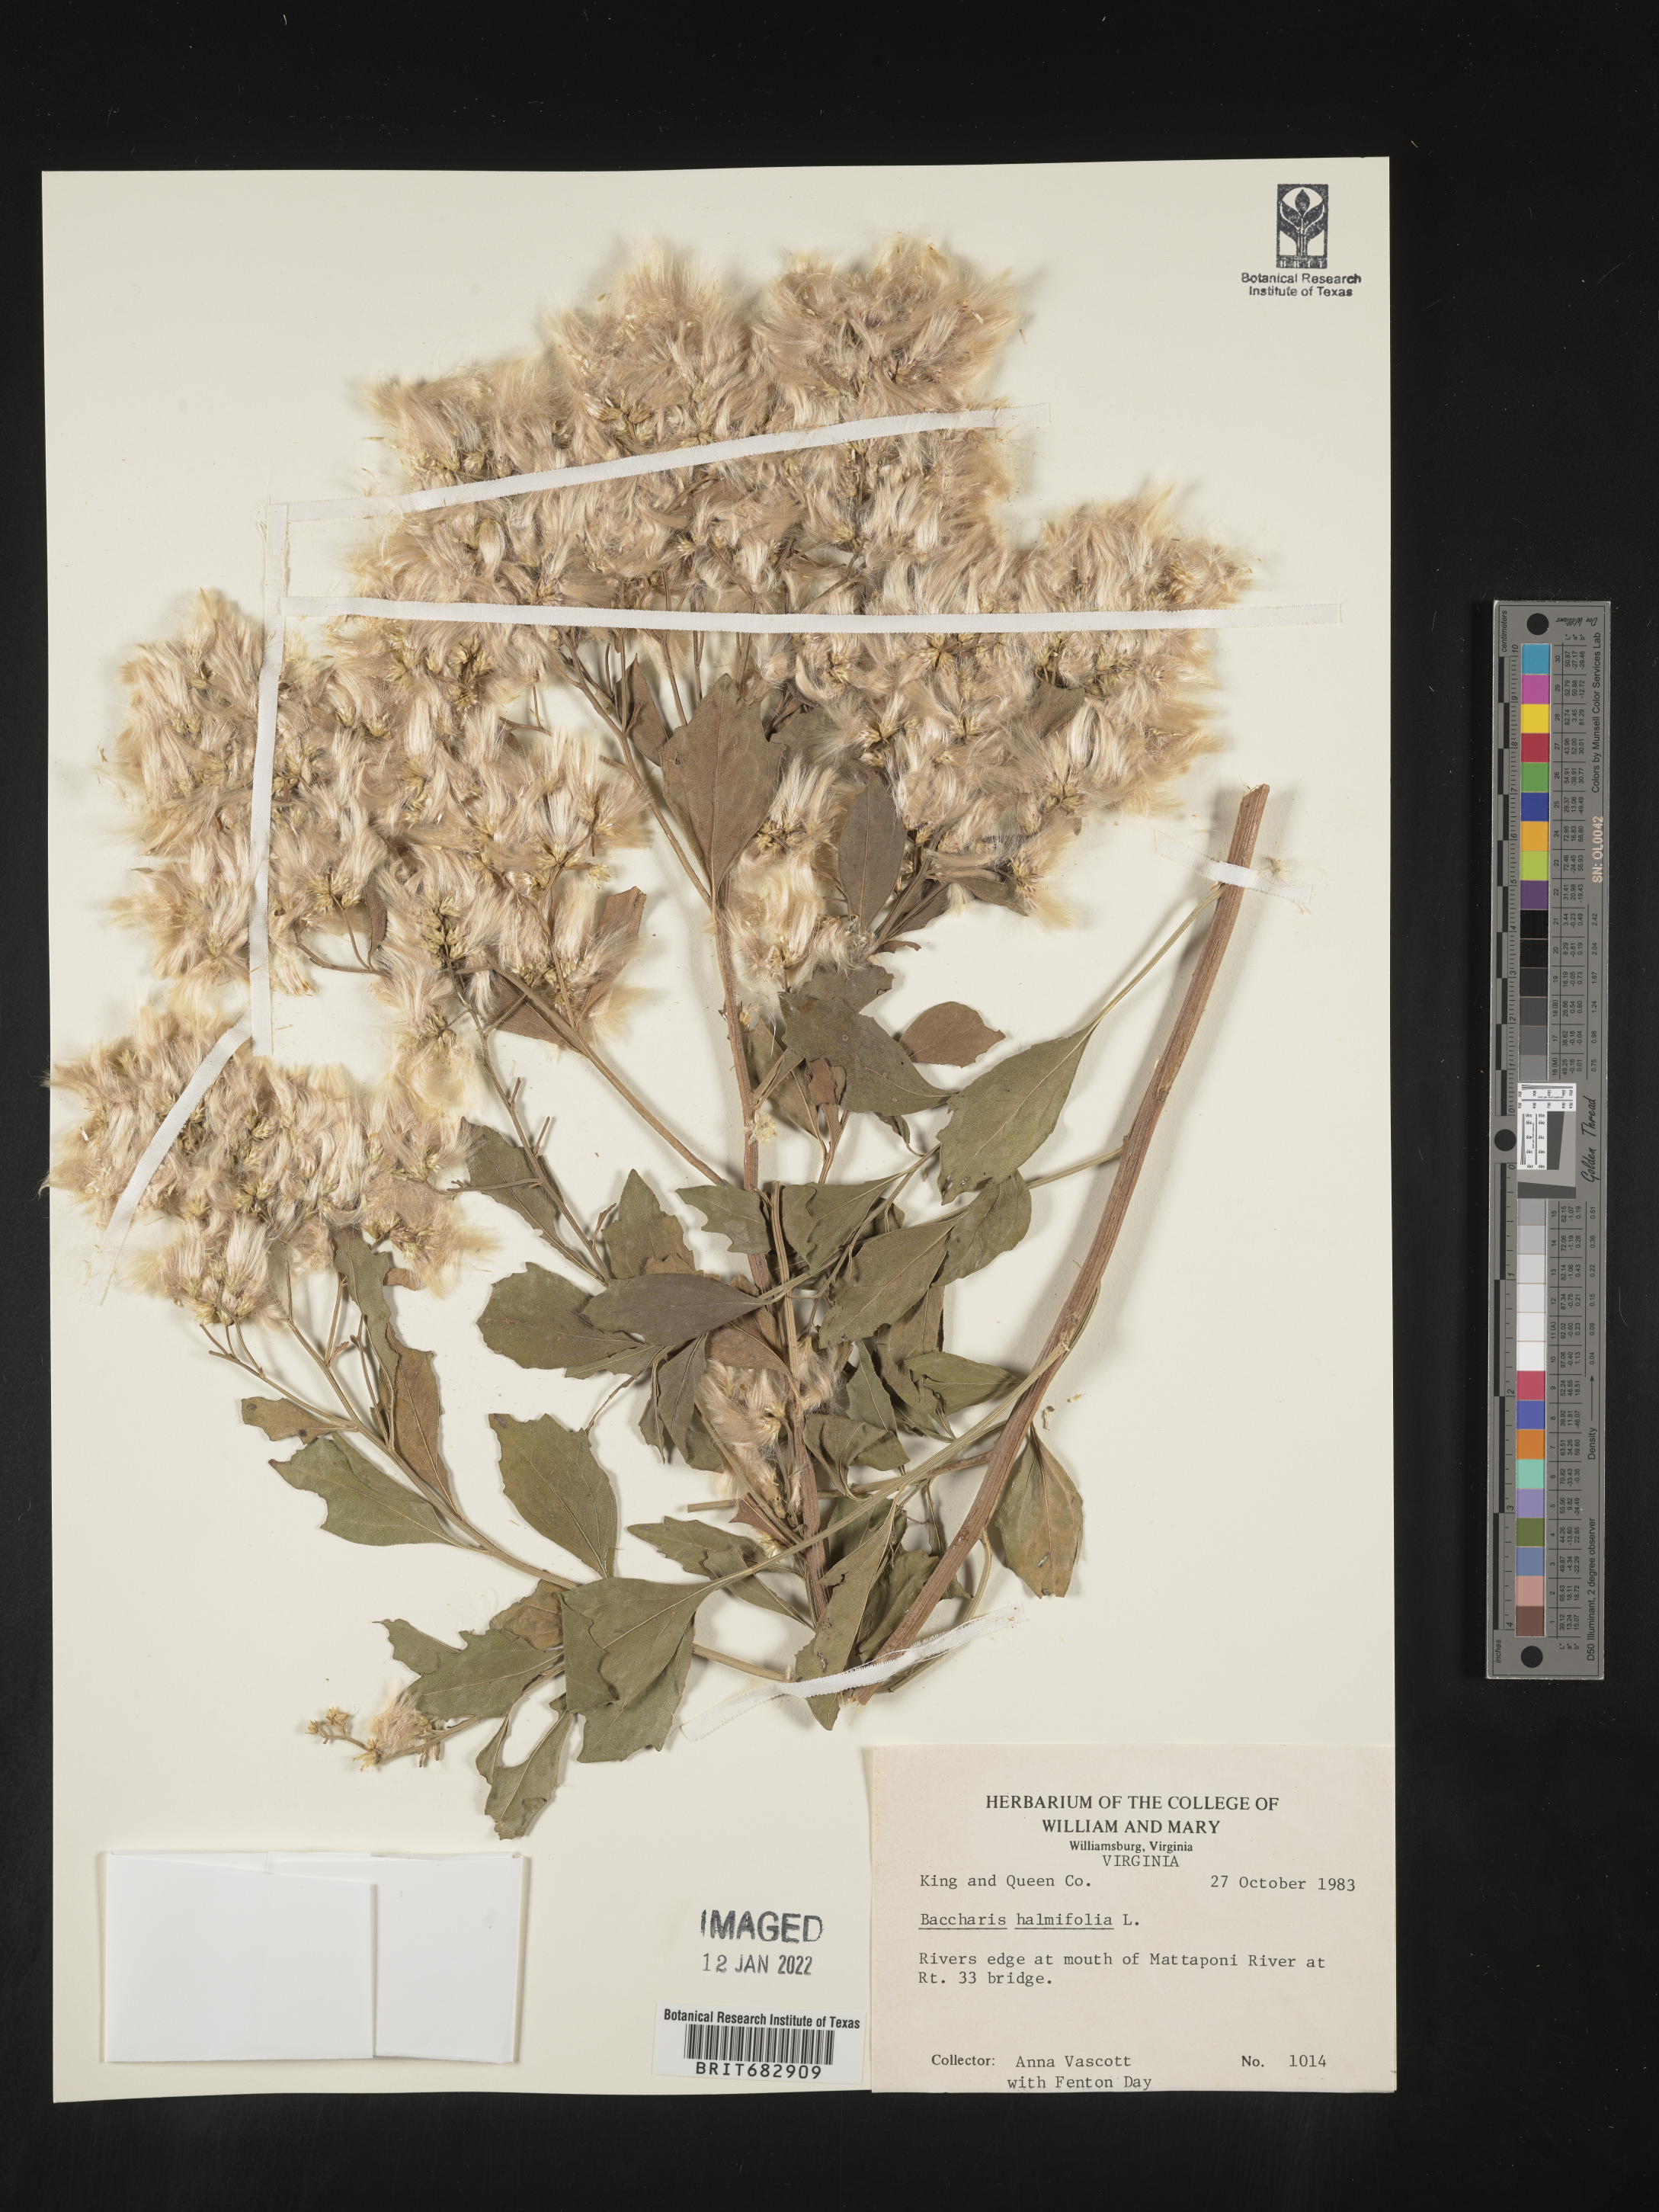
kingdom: Plantae
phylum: Tracheophyta
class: Magnoliopsida
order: Asterales
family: Asteraceae
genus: Nidorella
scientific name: Nidorella ivifolia
